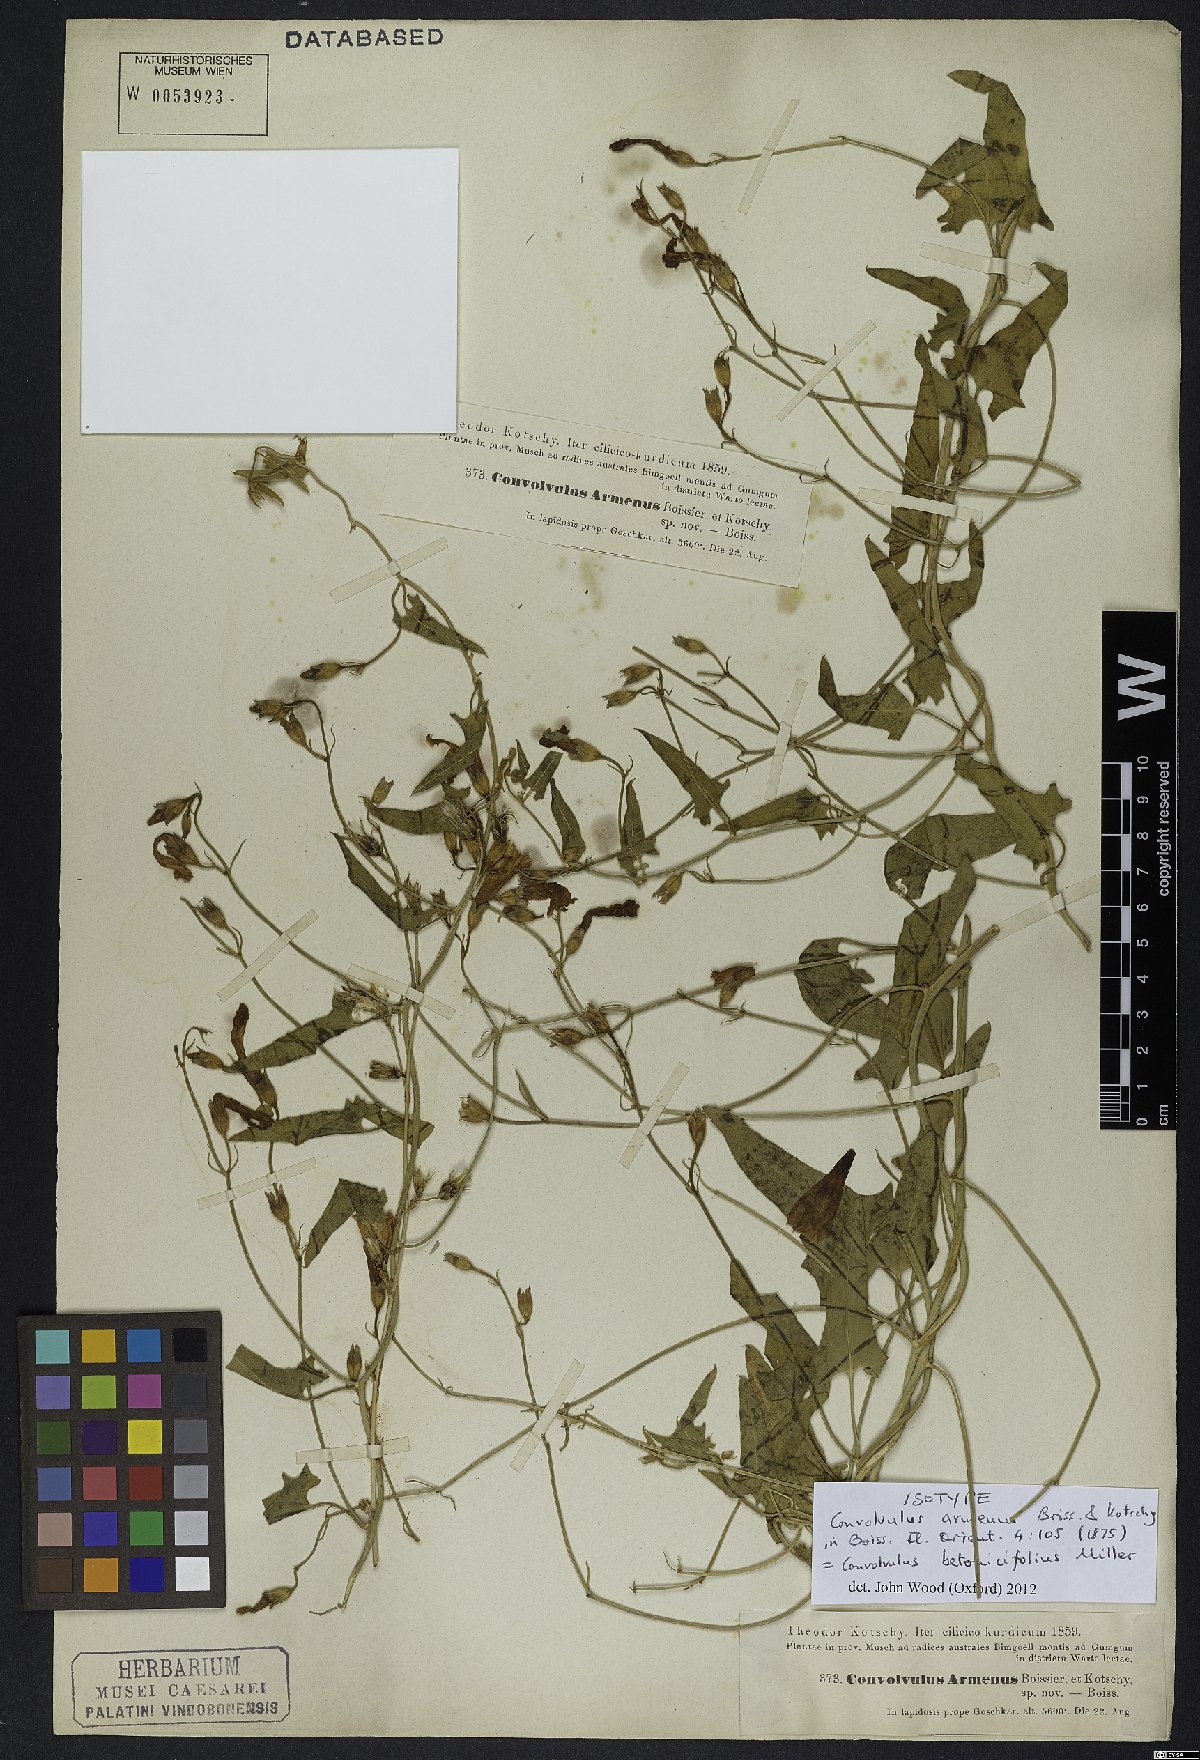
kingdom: Plantae
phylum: Tracheophyta
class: Magnoliopsida
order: Solanales
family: Convolvulaceae
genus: Convolvulus
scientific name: Convolvulus betonicifolius
